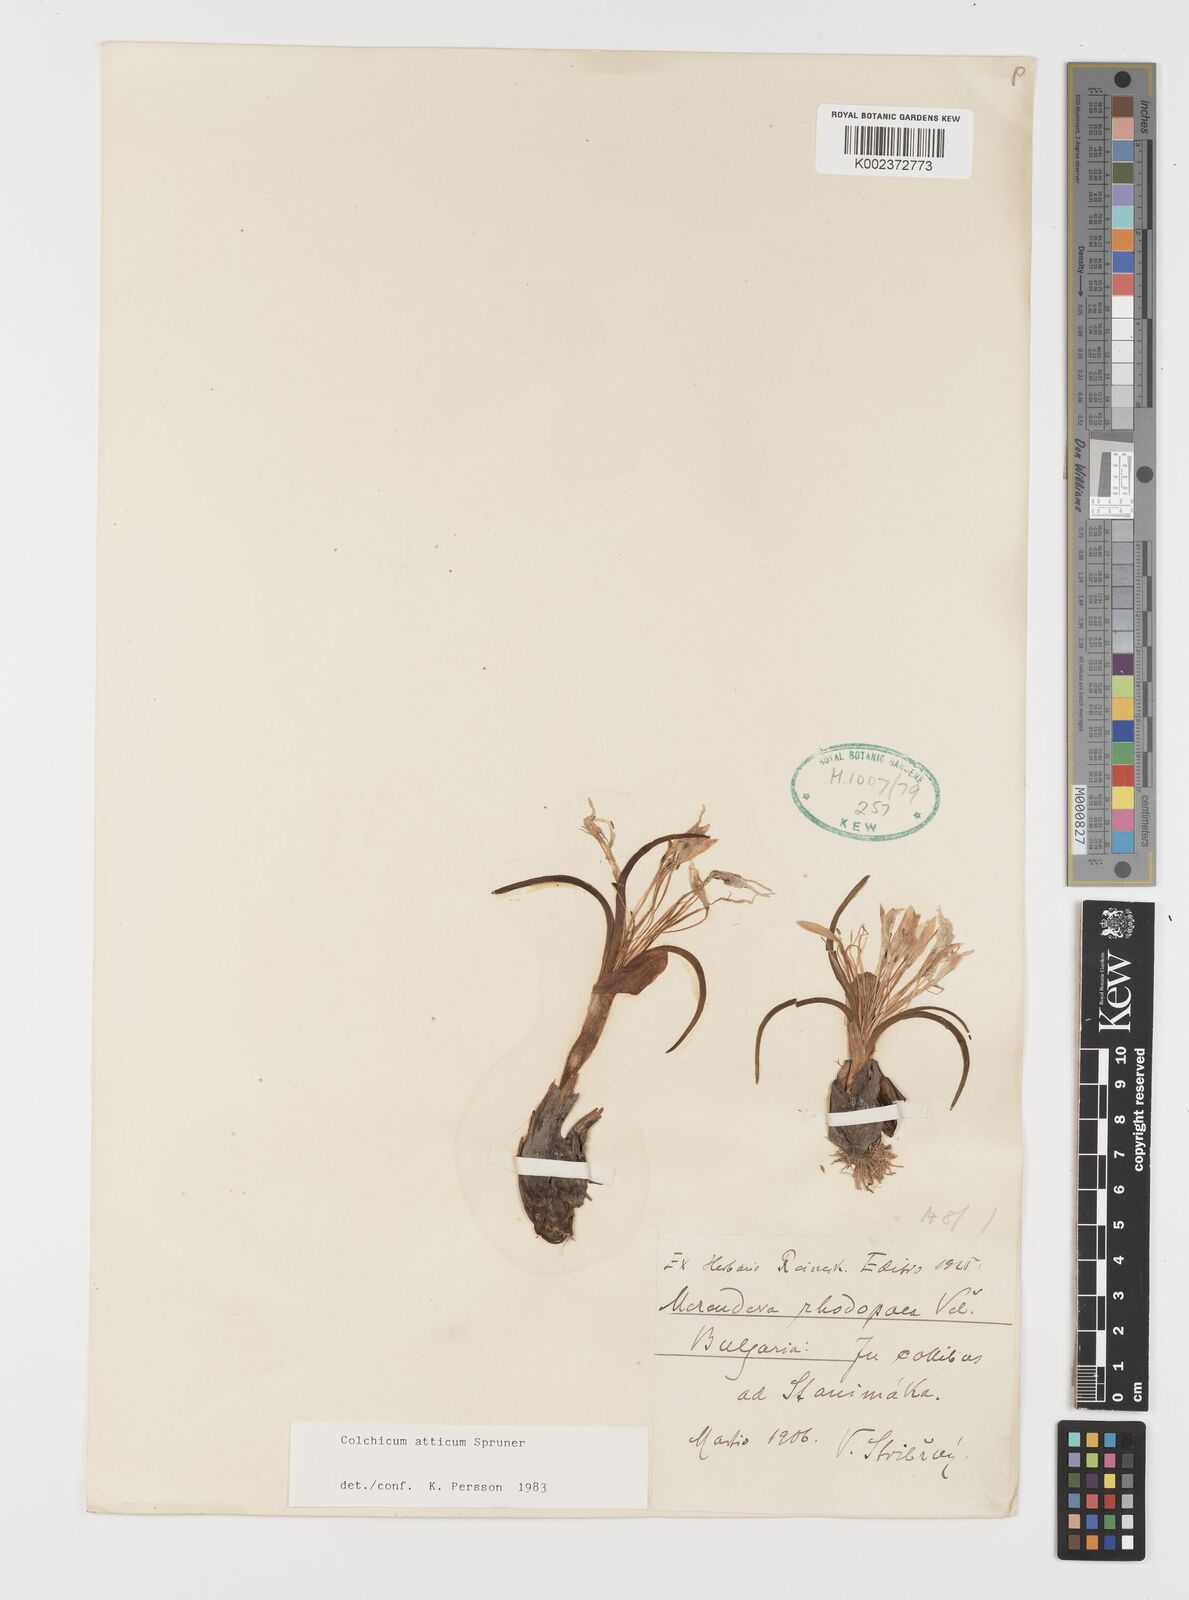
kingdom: Plantae
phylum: Tracheophyta
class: Liliopsida
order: Liliales
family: Colchicaceae
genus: Colchicum
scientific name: Colchicum atticum
